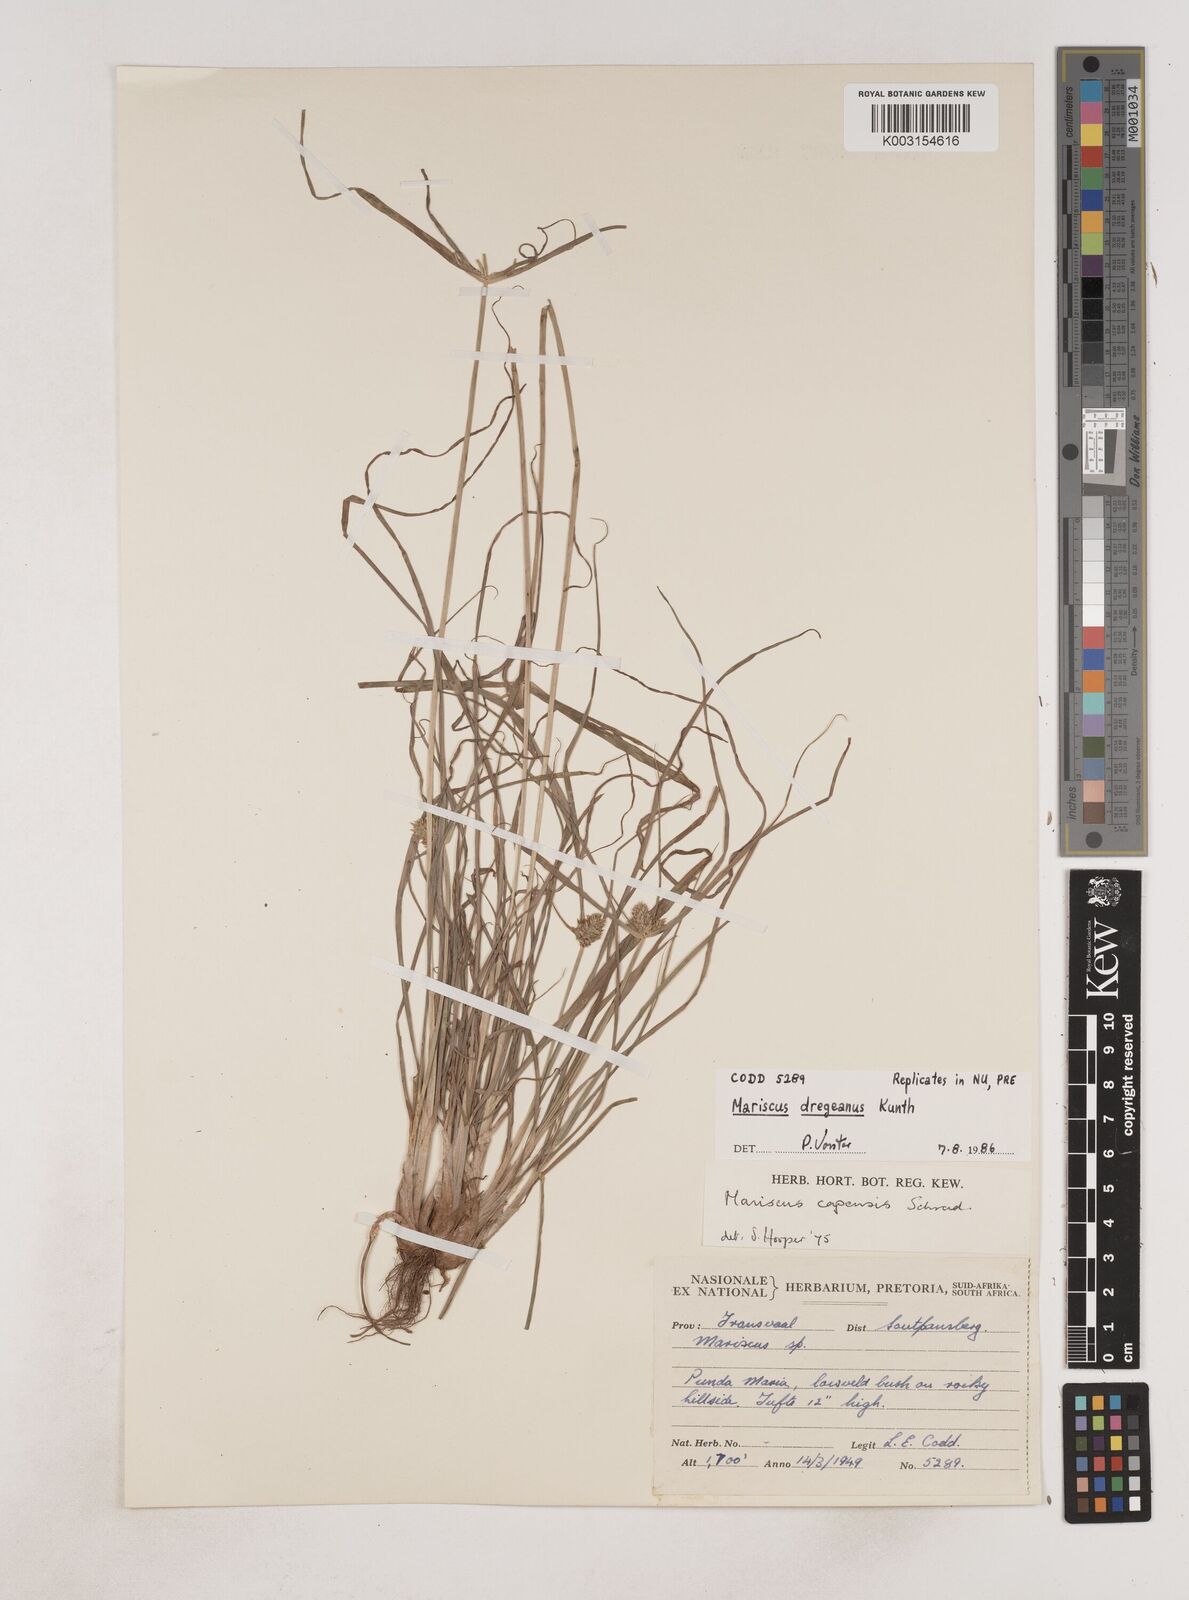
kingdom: Plantae
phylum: Tracheophyta
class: Liliopsida
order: Poales
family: Cyperaceae
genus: Cyperus
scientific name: Cyperus dubius
